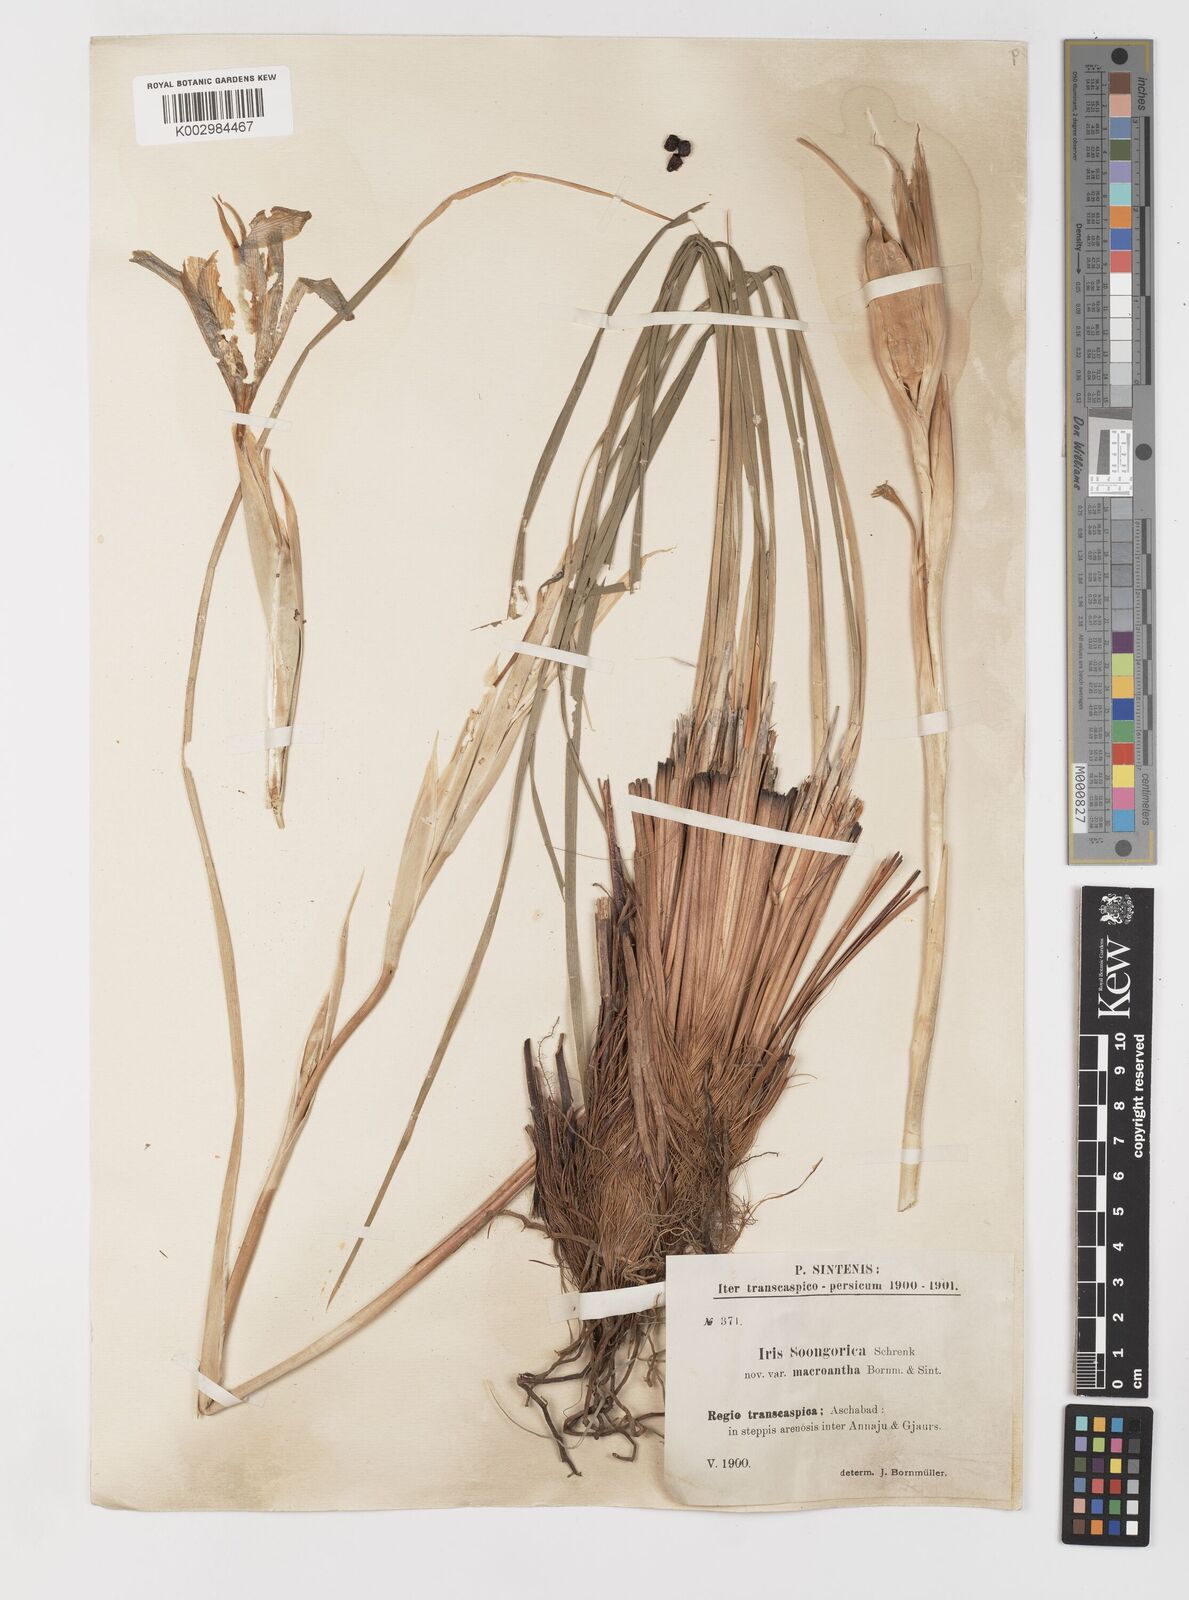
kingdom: Plantae
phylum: Tracheophyta
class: Liliopsida
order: Asparagales
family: Iridaceae
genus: Iris
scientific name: Iris songarica
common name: Songar iris
